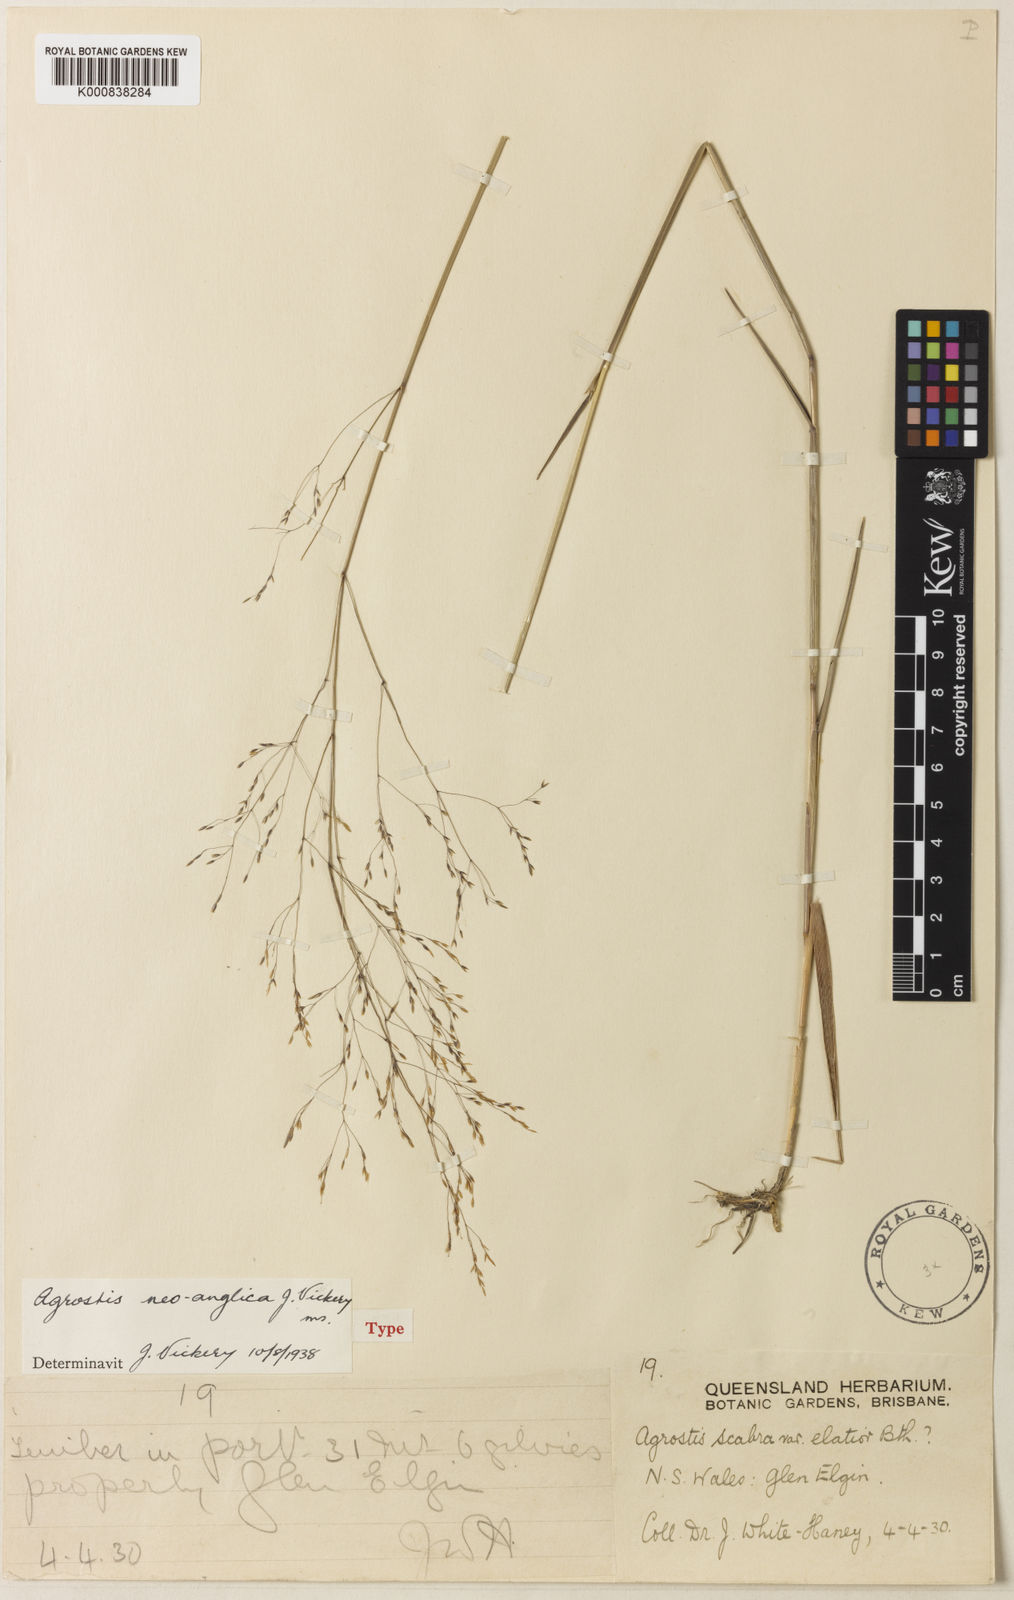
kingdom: Plantae
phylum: Tracheophyta
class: Liliopsida
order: Poales
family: Poaceae
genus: Agrostis
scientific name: Agrostis hyemalis
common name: Small bent
